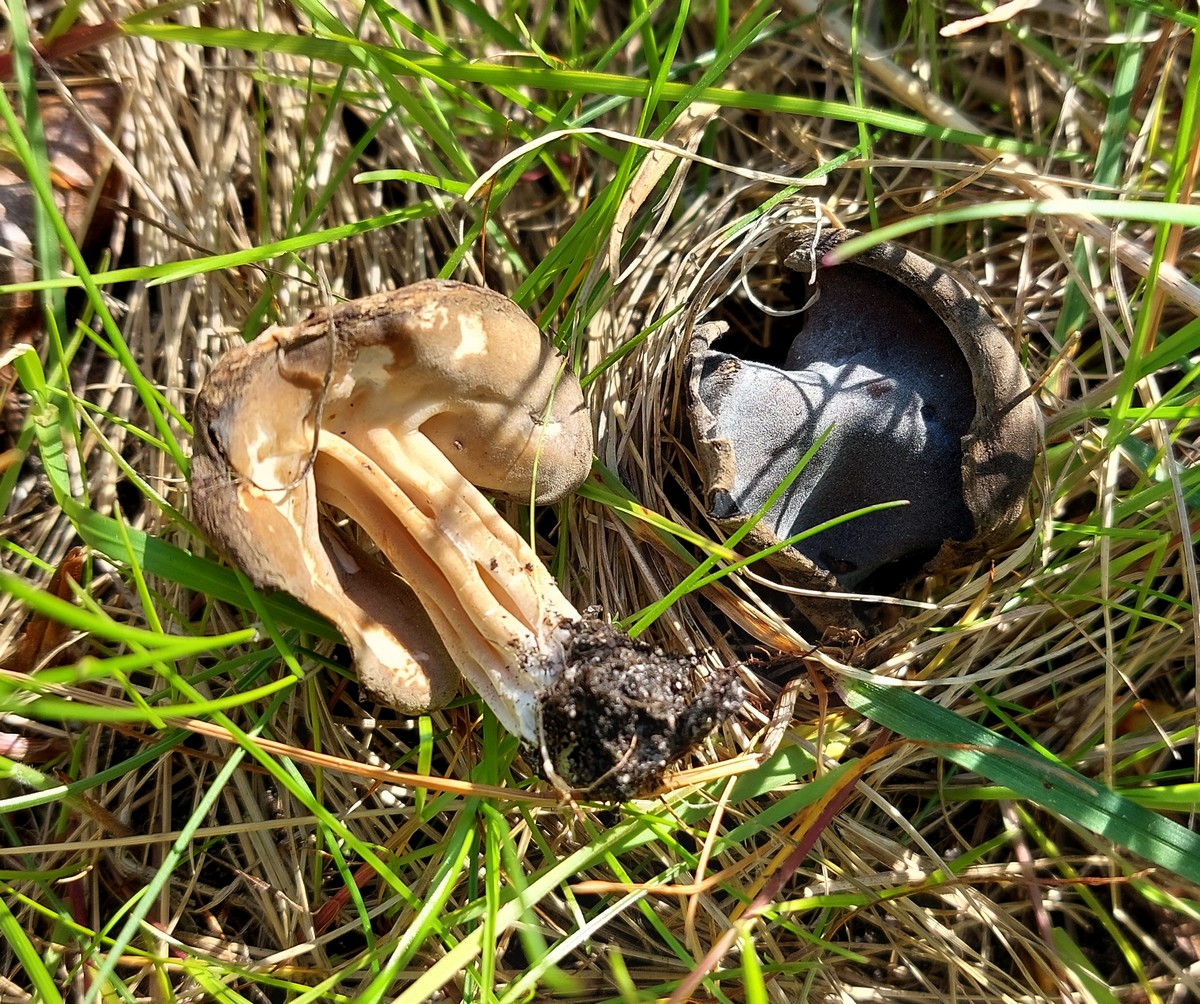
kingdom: Fungi
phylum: Ascomycota
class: Pezizomycetes
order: Pezizales
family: Helvellaceae
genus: Helvella
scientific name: Helvella solitaria
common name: Quélets foldhat
